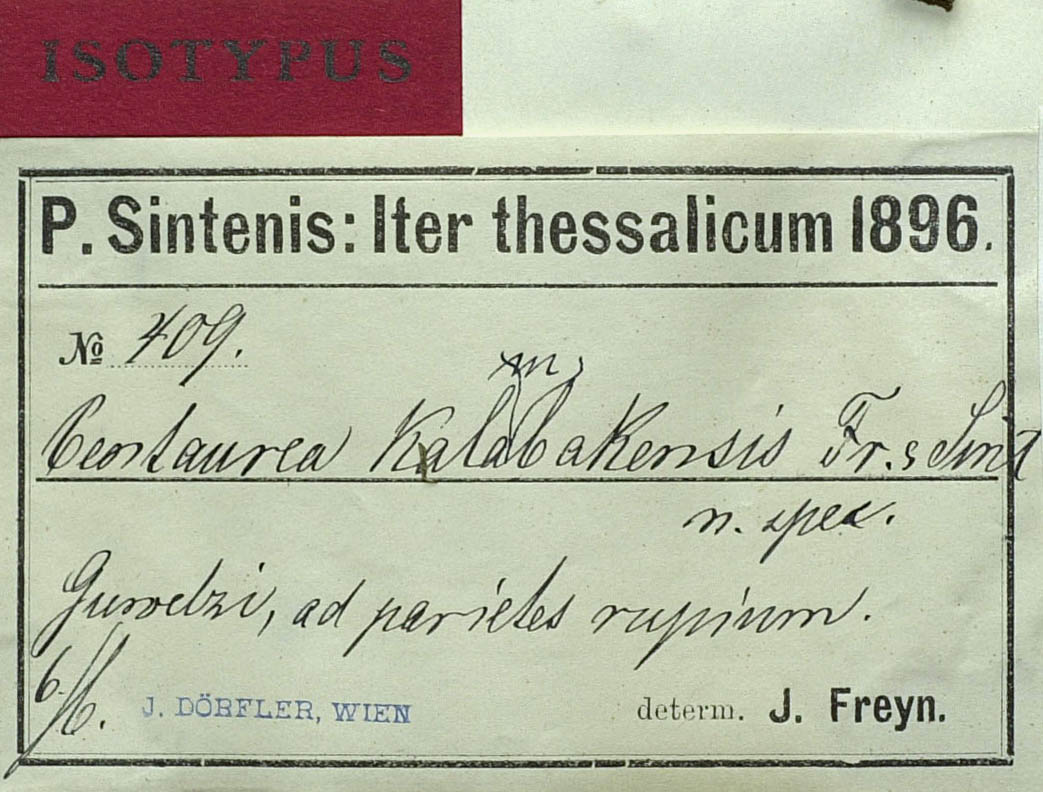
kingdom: Plantae
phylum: Tracheophyta
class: Magnoliopsida
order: Asterales
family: Asteraceae
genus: Centaurea
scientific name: Centaurea kalambakensis
